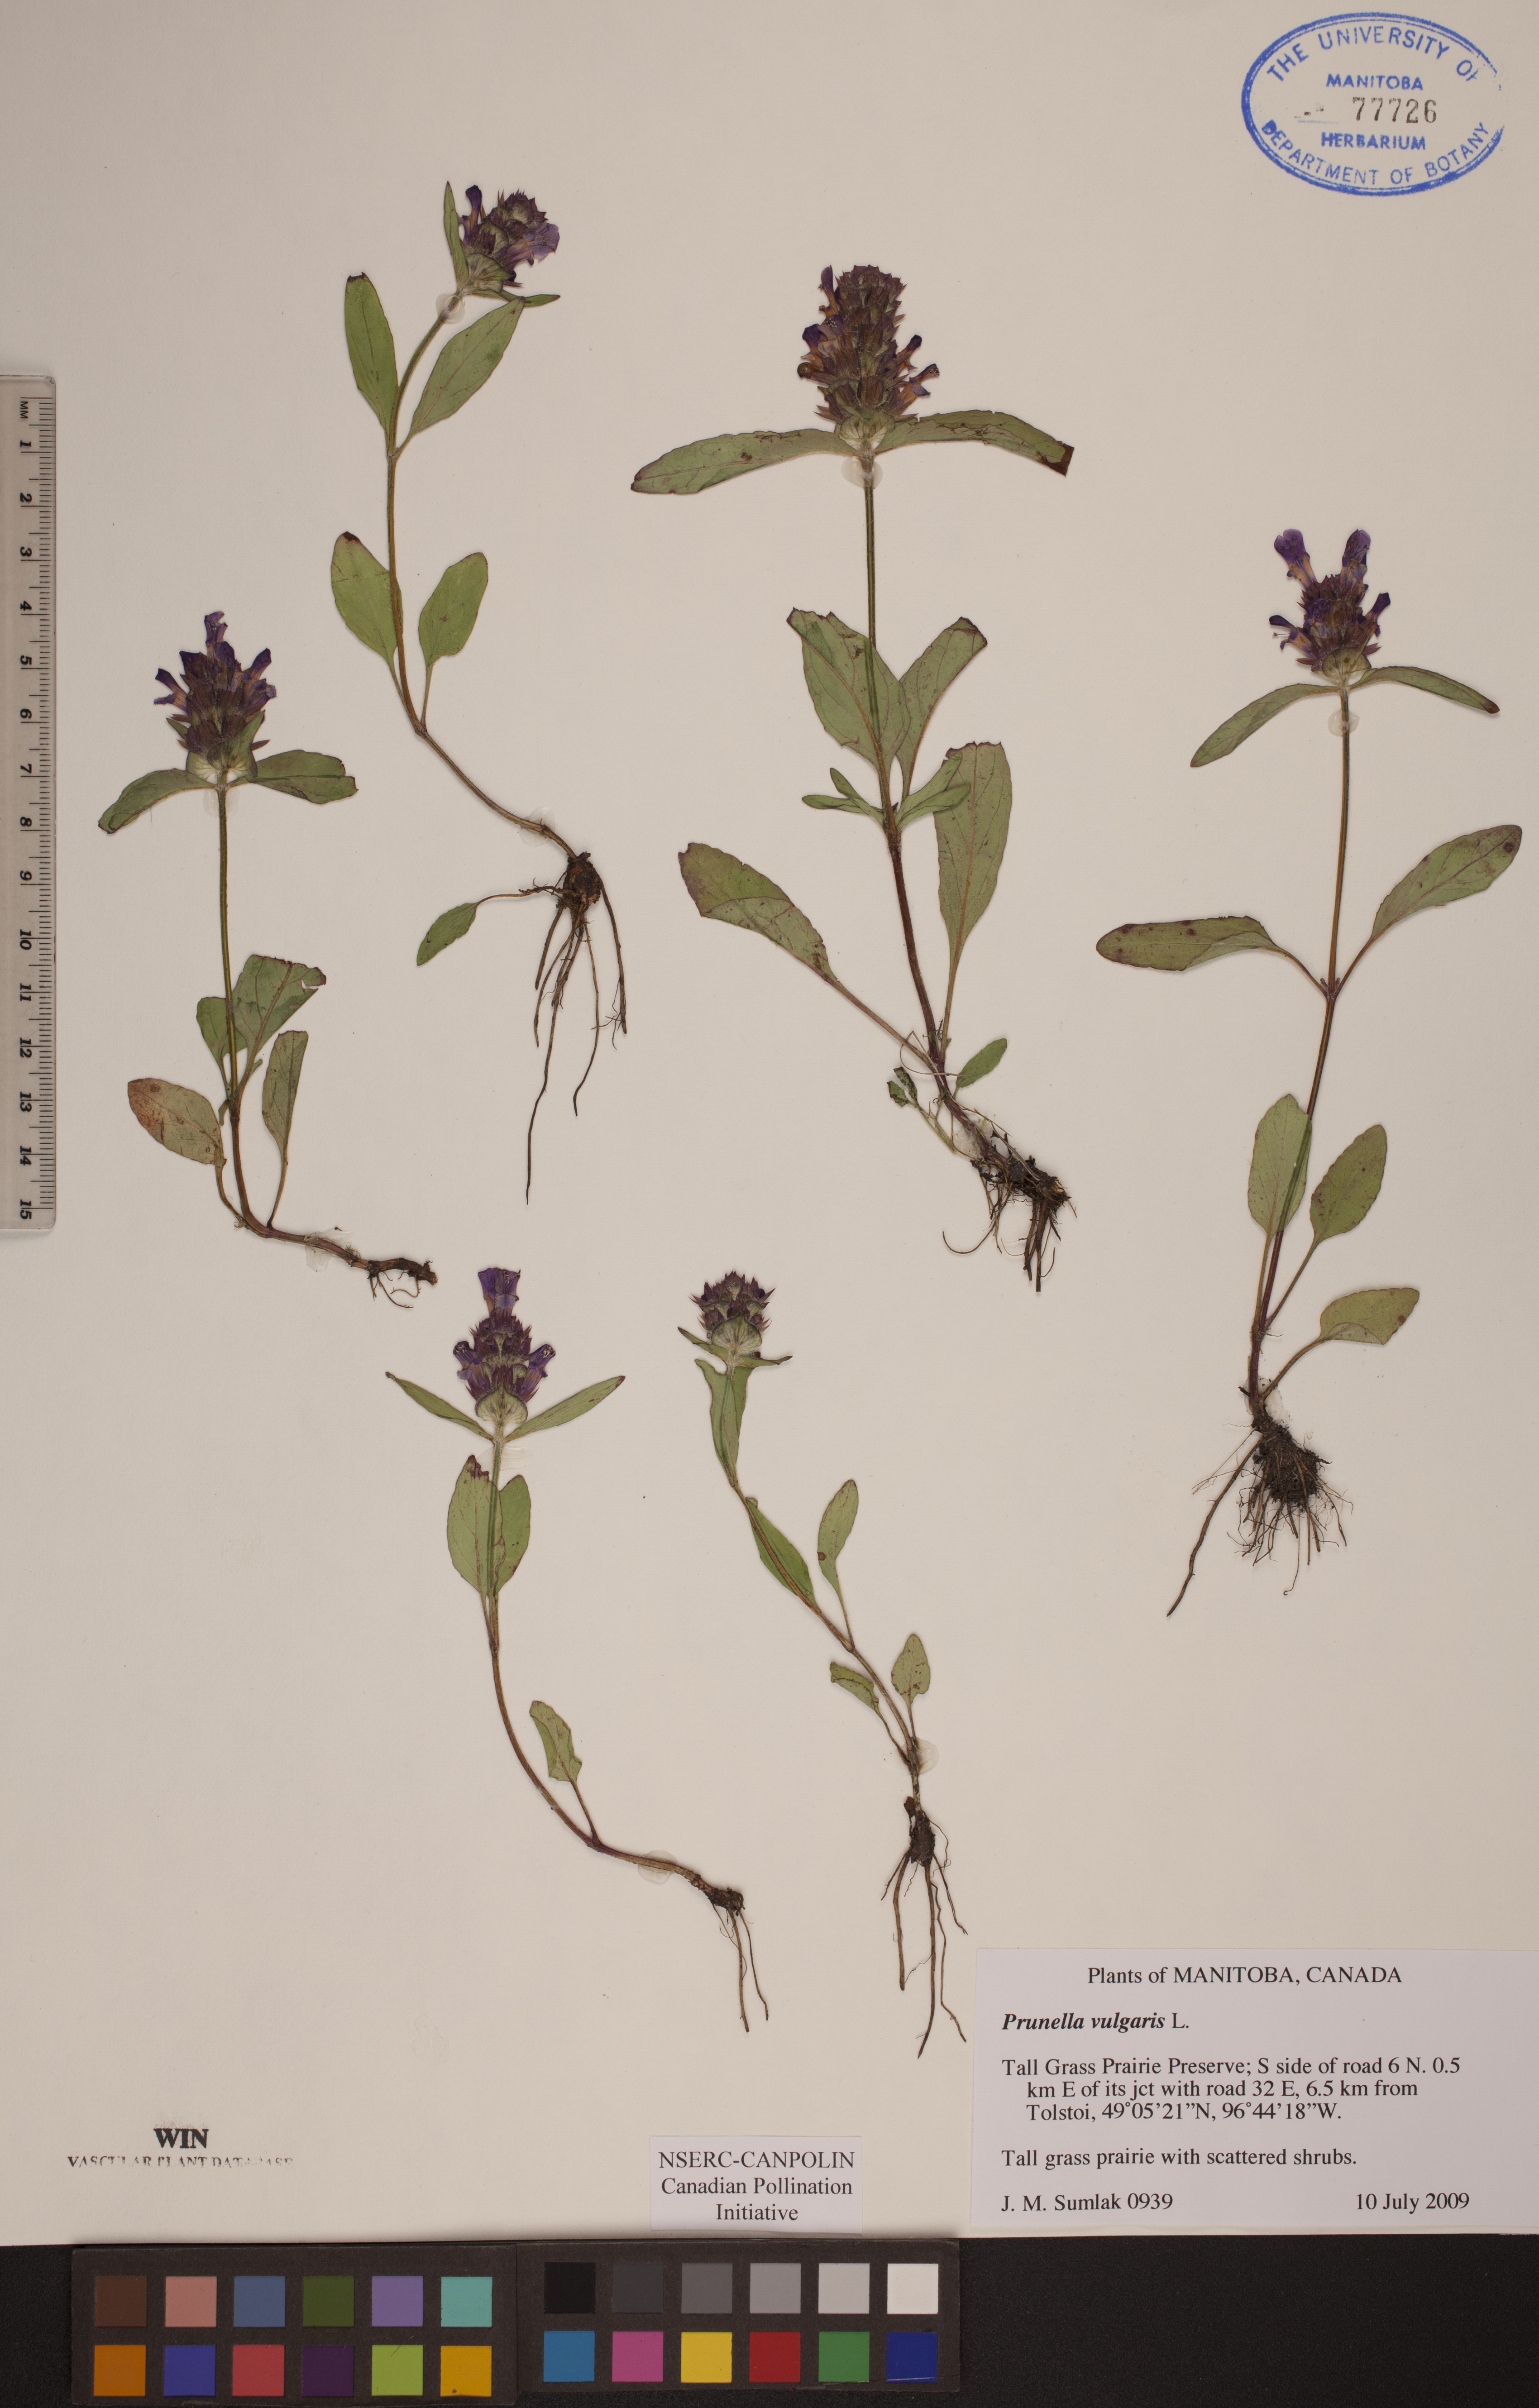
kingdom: Plantae
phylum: Tracheophyta
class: Magnoliopsida
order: Lamiales
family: Lamiaceae
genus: Prunella
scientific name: Prunella vulgaris
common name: Heal-all
